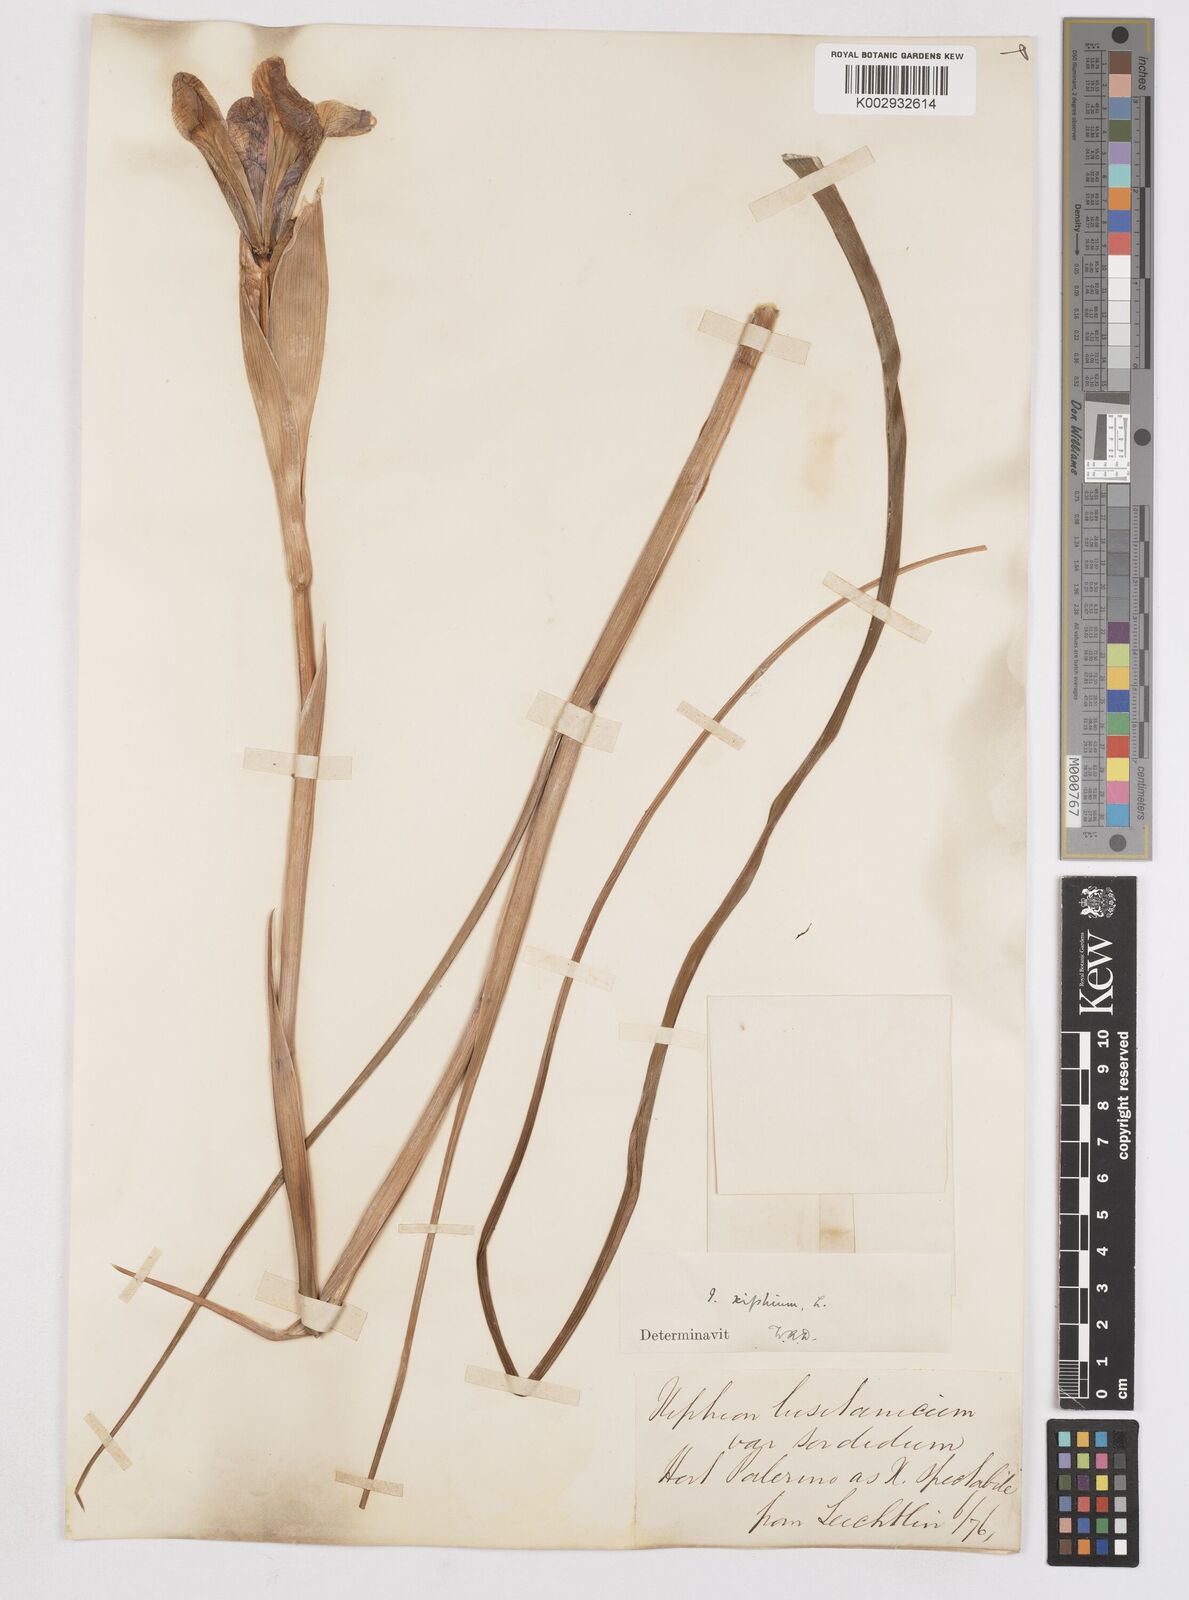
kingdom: Plantae
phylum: Tracheophyta
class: Liliopsida
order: Asparagales
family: Iridaceae
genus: Iris
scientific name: Iris xiphium
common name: Spanish iris
